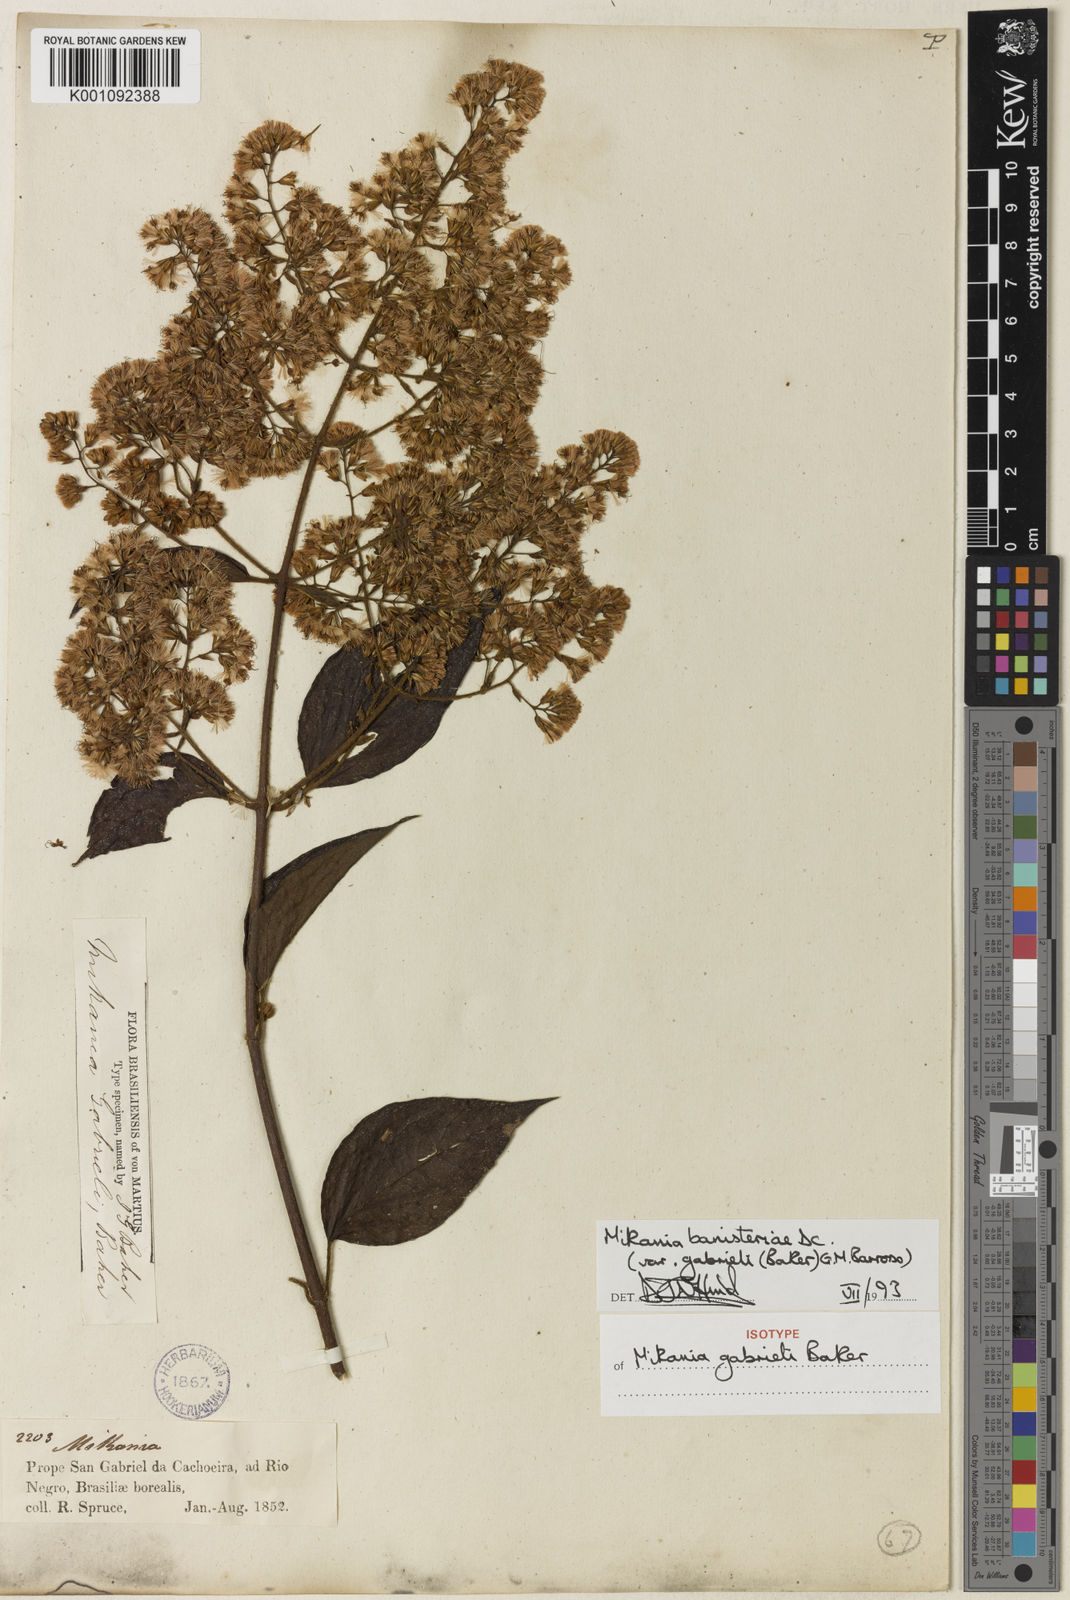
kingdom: Plantae
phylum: Tracheophyta
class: Magnoliopsida
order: Asterales
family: Asteraceae
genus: Mikania
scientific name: Mikania banisteriae
